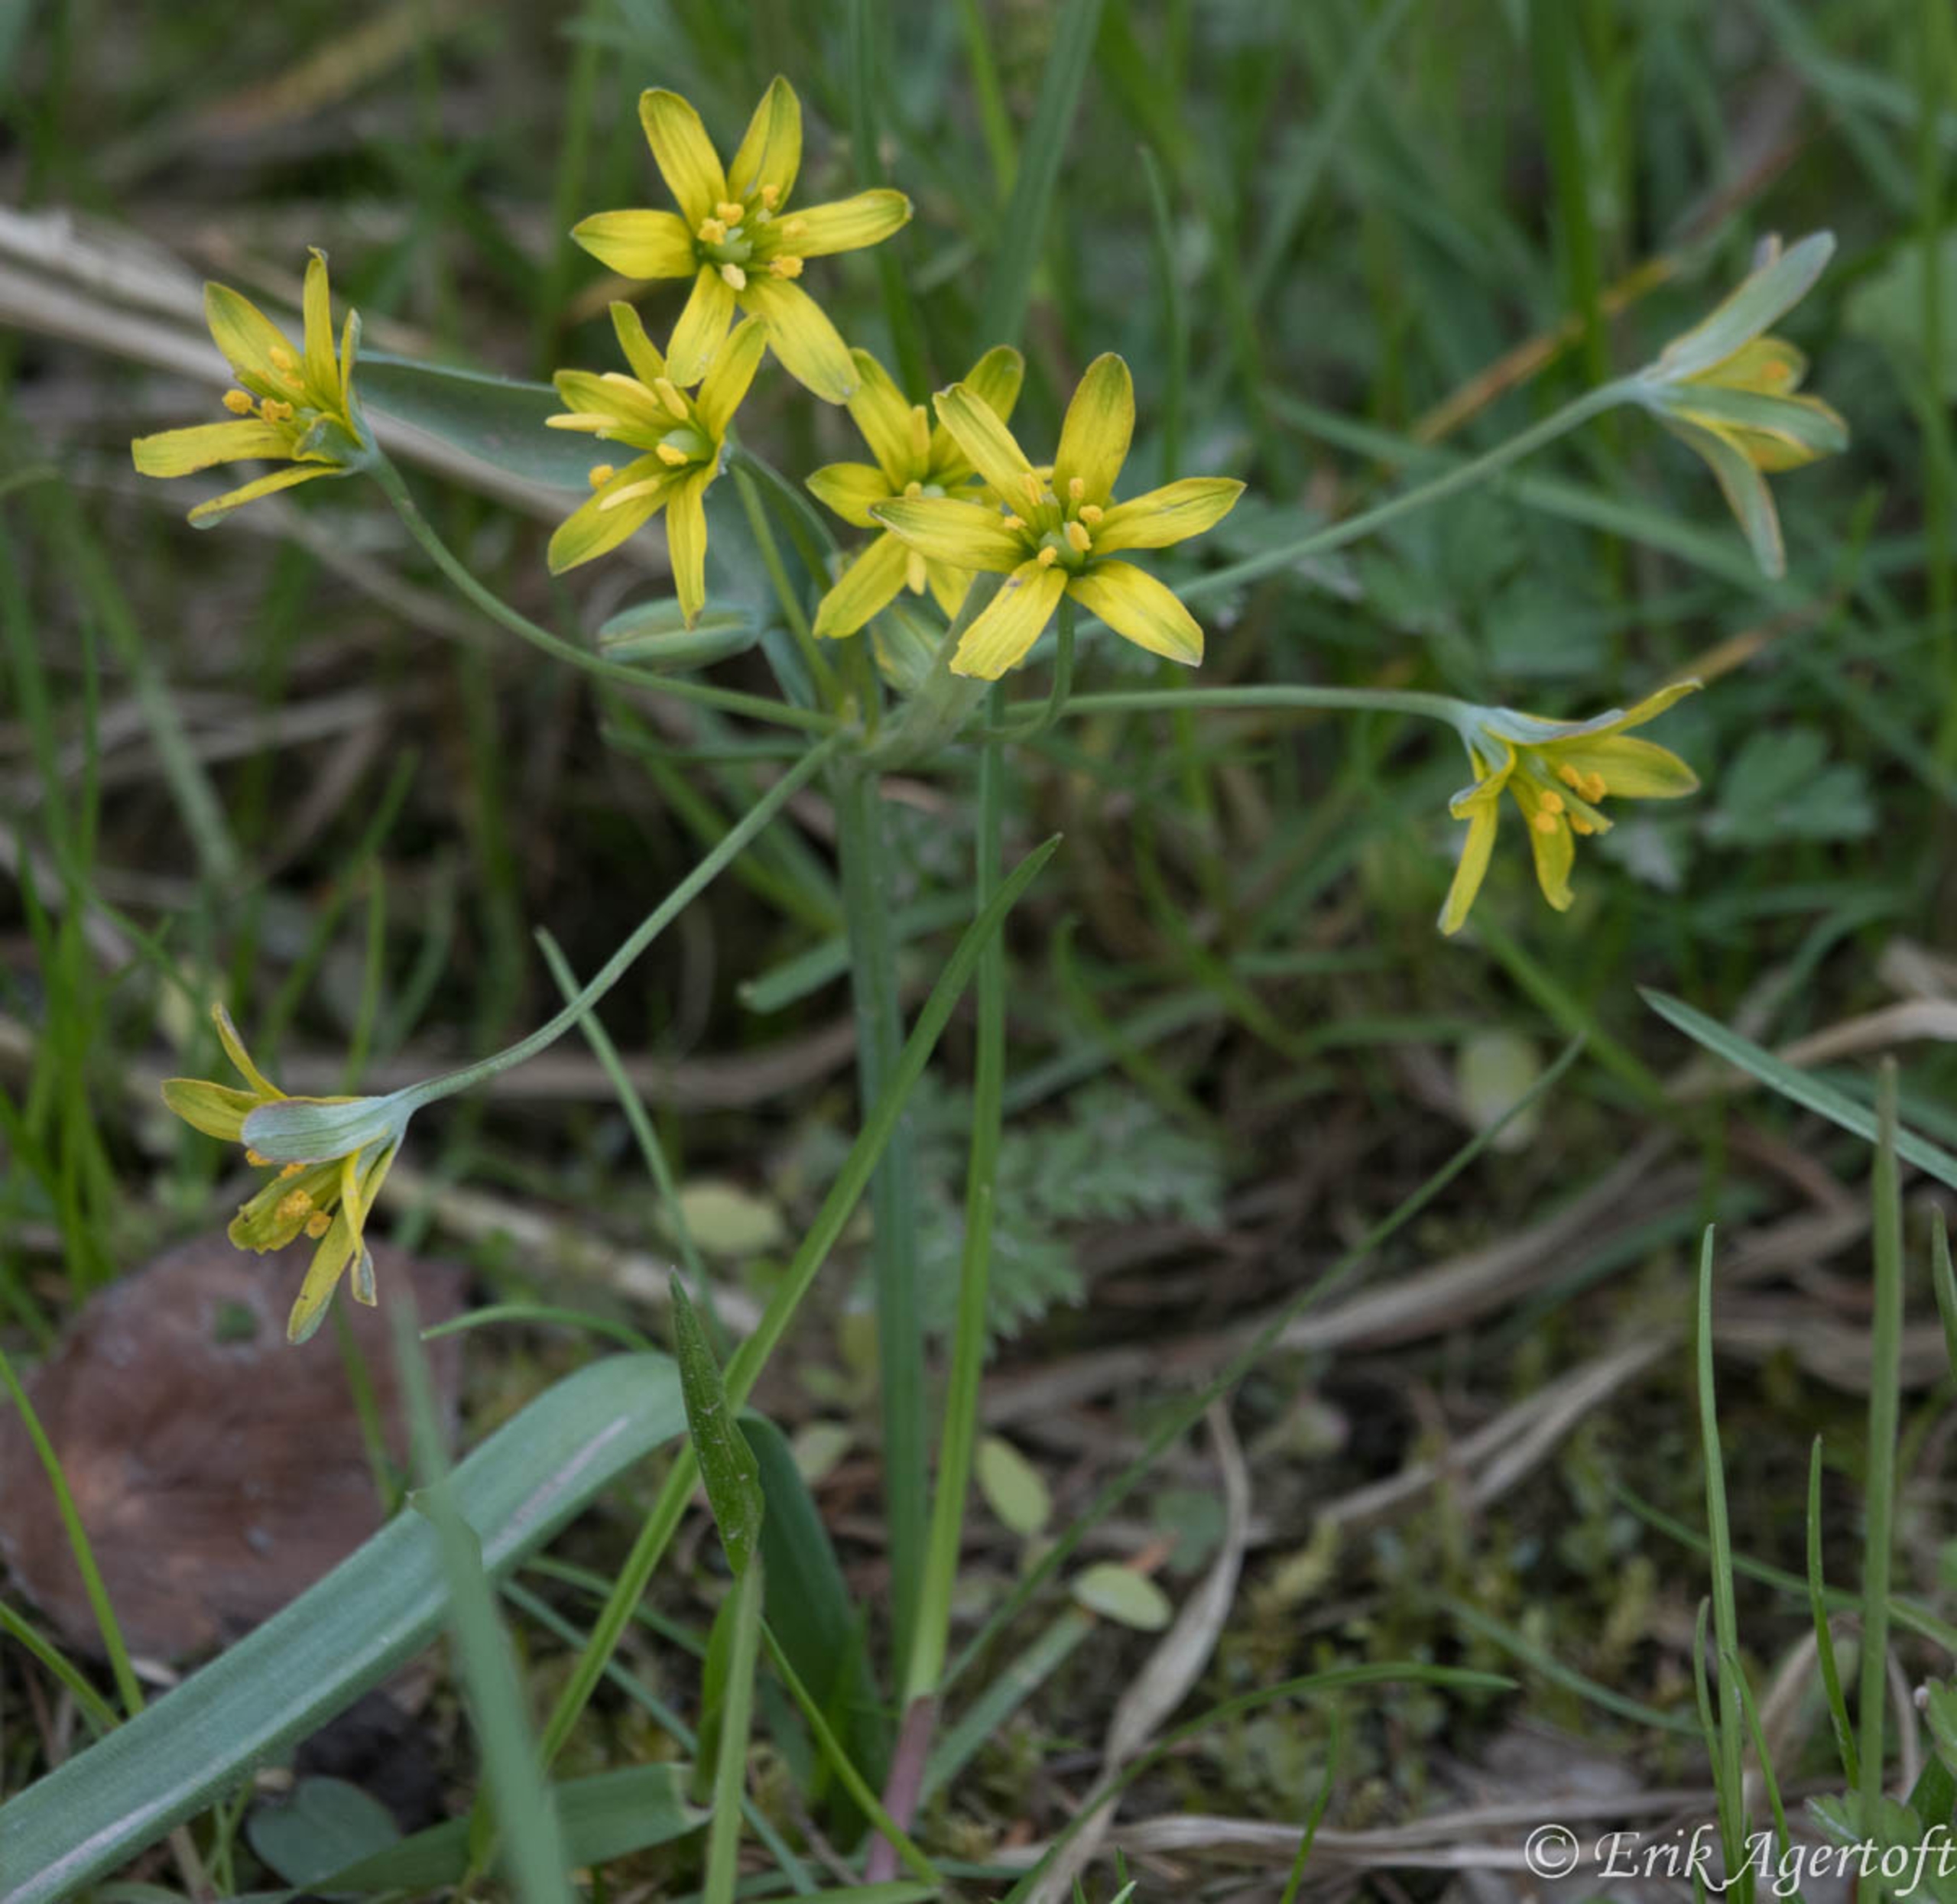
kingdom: Plantae
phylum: Tracheophyta
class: Liliopsida
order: Liliales
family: Liliaceae
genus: Gagea
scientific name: Gagea lutea
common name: Almindelig guldstjerne
